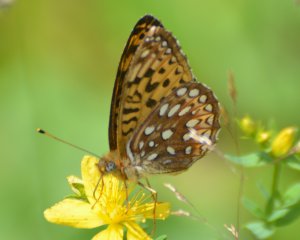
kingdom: Animalia
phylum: Arthropoda
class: Insecta
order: Lepidoptera
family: Nymphalidae
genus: Speyeria
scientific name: Speyeria atlantis
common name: Atlantis Fritillary
